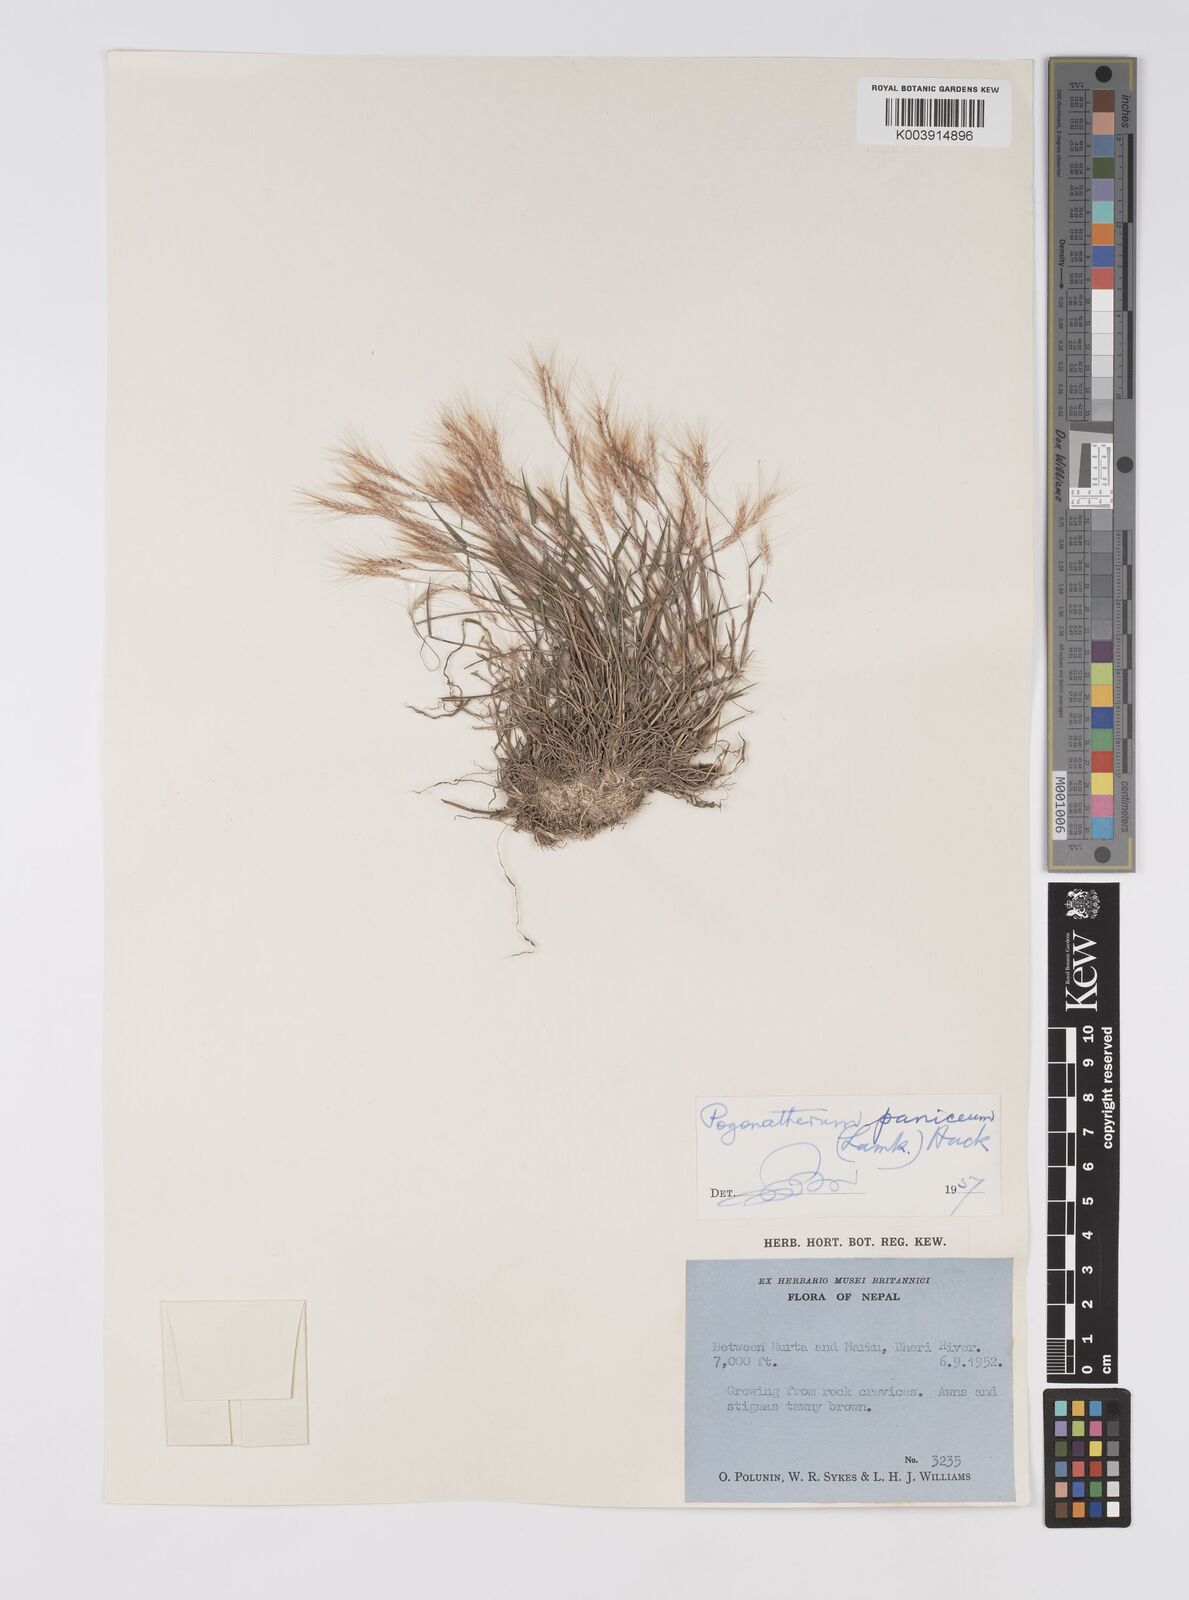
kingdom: Plantae
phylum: Tracheophyta
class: Liliopsida
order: Poales
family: Poaceae
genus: Pogonatherum
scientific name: Pogonatherum paniceum
